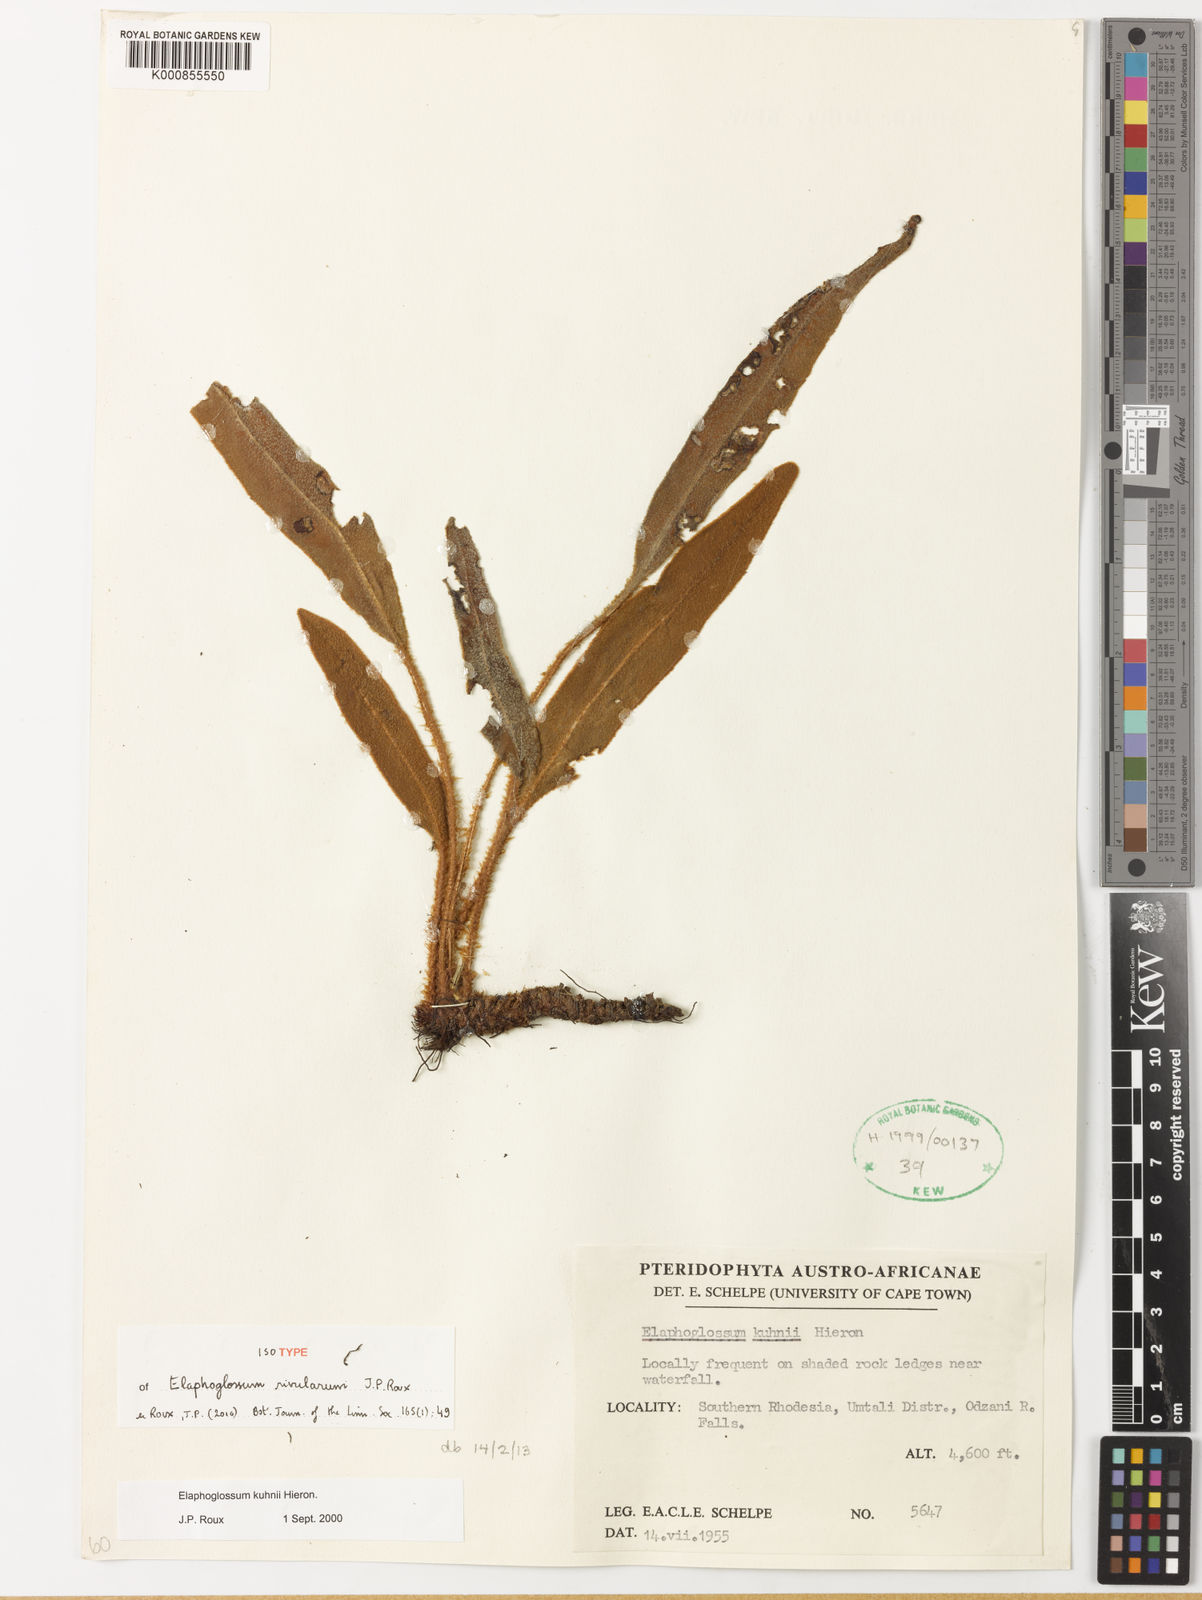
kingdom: Plantae
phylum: Tracheophyta
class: Polypodiopsida
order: Polypodiales
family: Dryopteridaceae
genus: Elaphoglossum
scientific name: Elaphoglossum rivularum
